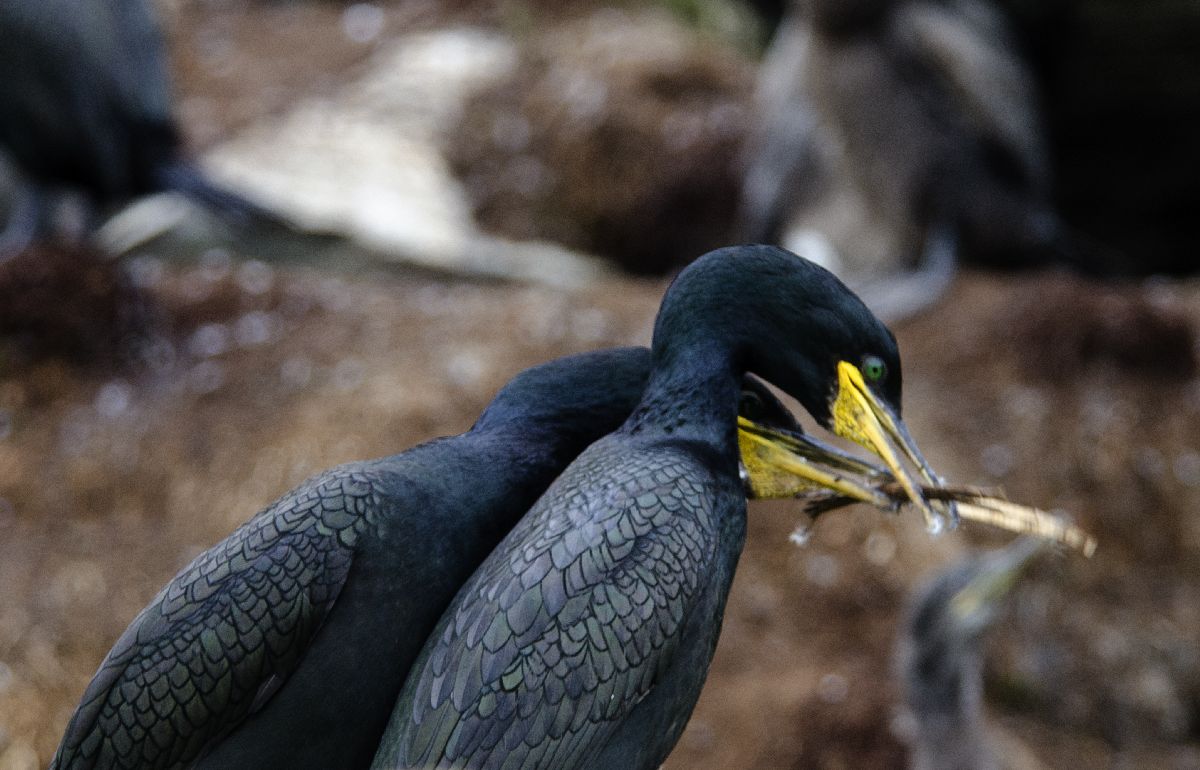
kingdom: Animalia
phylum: Chordata
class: Aves
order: Suliformes
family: Phalacrocoracidae
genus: Phalacrocorax
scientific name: Phalacrocorax aristotelis
